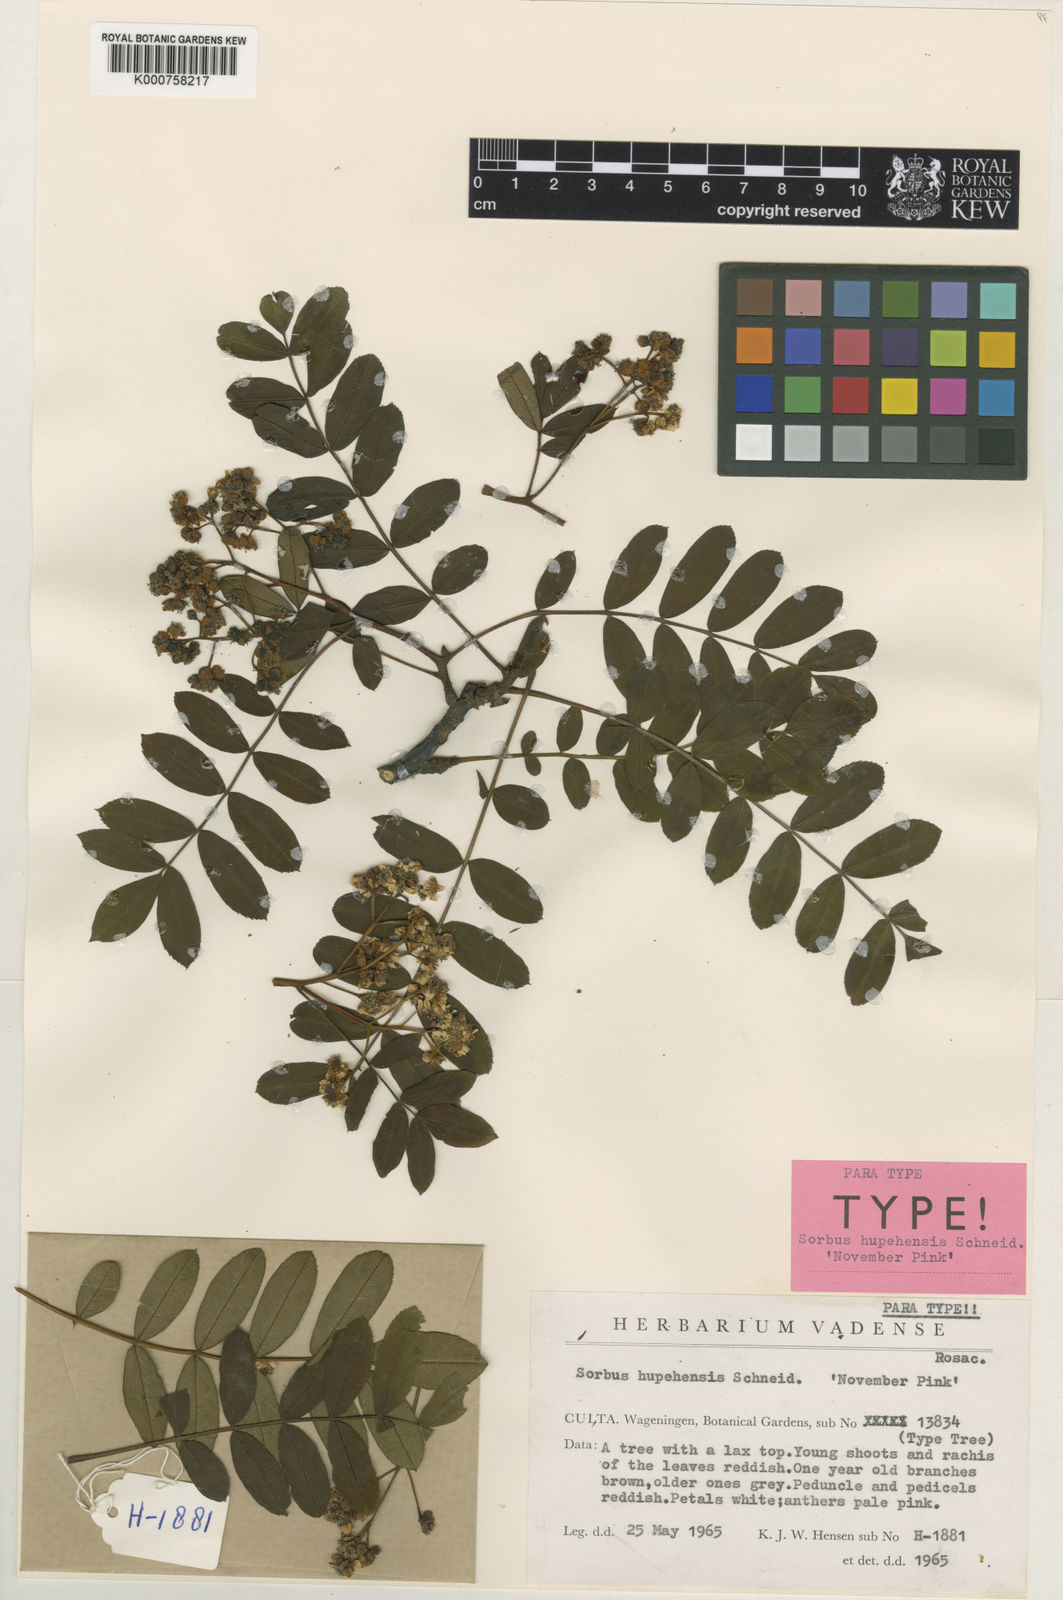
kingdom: Plantae
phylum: Tracheophyta
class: Magnoliopsida
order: Rosales
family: Rosaceae
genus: Sorbus
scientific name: Sorbus hupehensis
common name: Hupeh rowan
